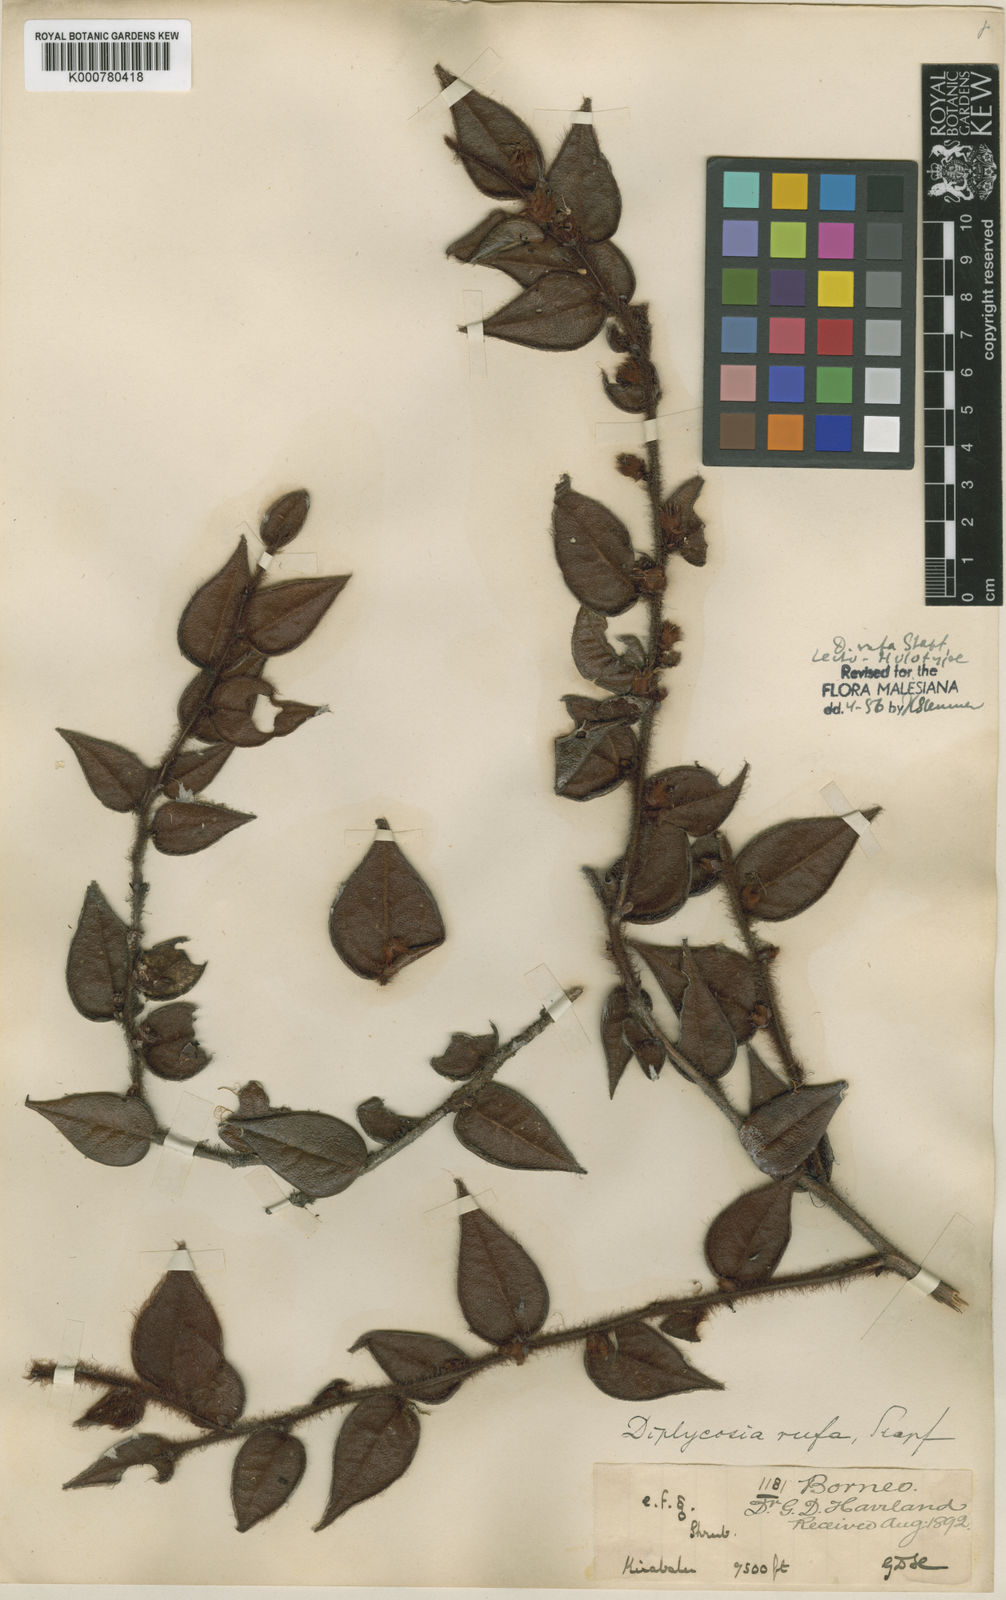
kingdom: Plantae
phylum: Tracheophyta
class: Magnoliopsida
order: Ericales
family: Ericaceae
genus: Gaultheria
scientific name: Gaultheria rufa
